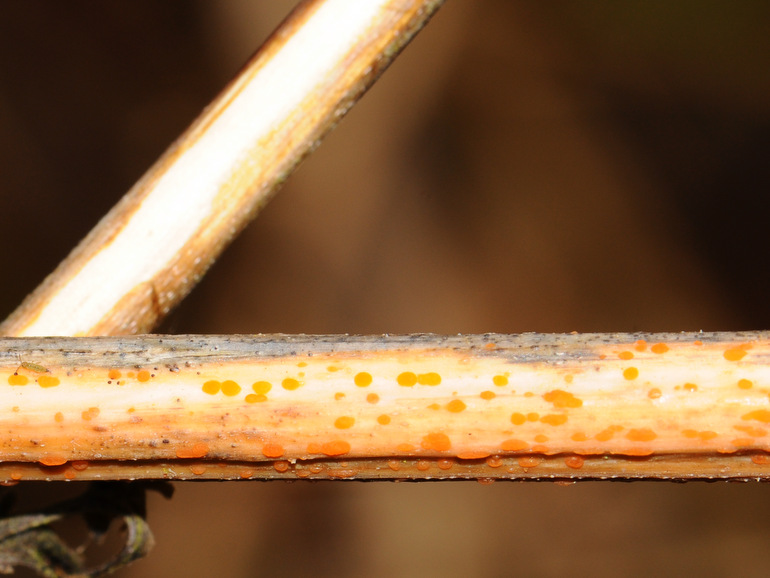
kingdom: Fungi
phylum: Ascomycota
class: Leotiomycetes
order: Helotiales
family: Calloriaceae
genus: Calloria
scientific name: Calloria urticae
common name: nælde-orangeskive
